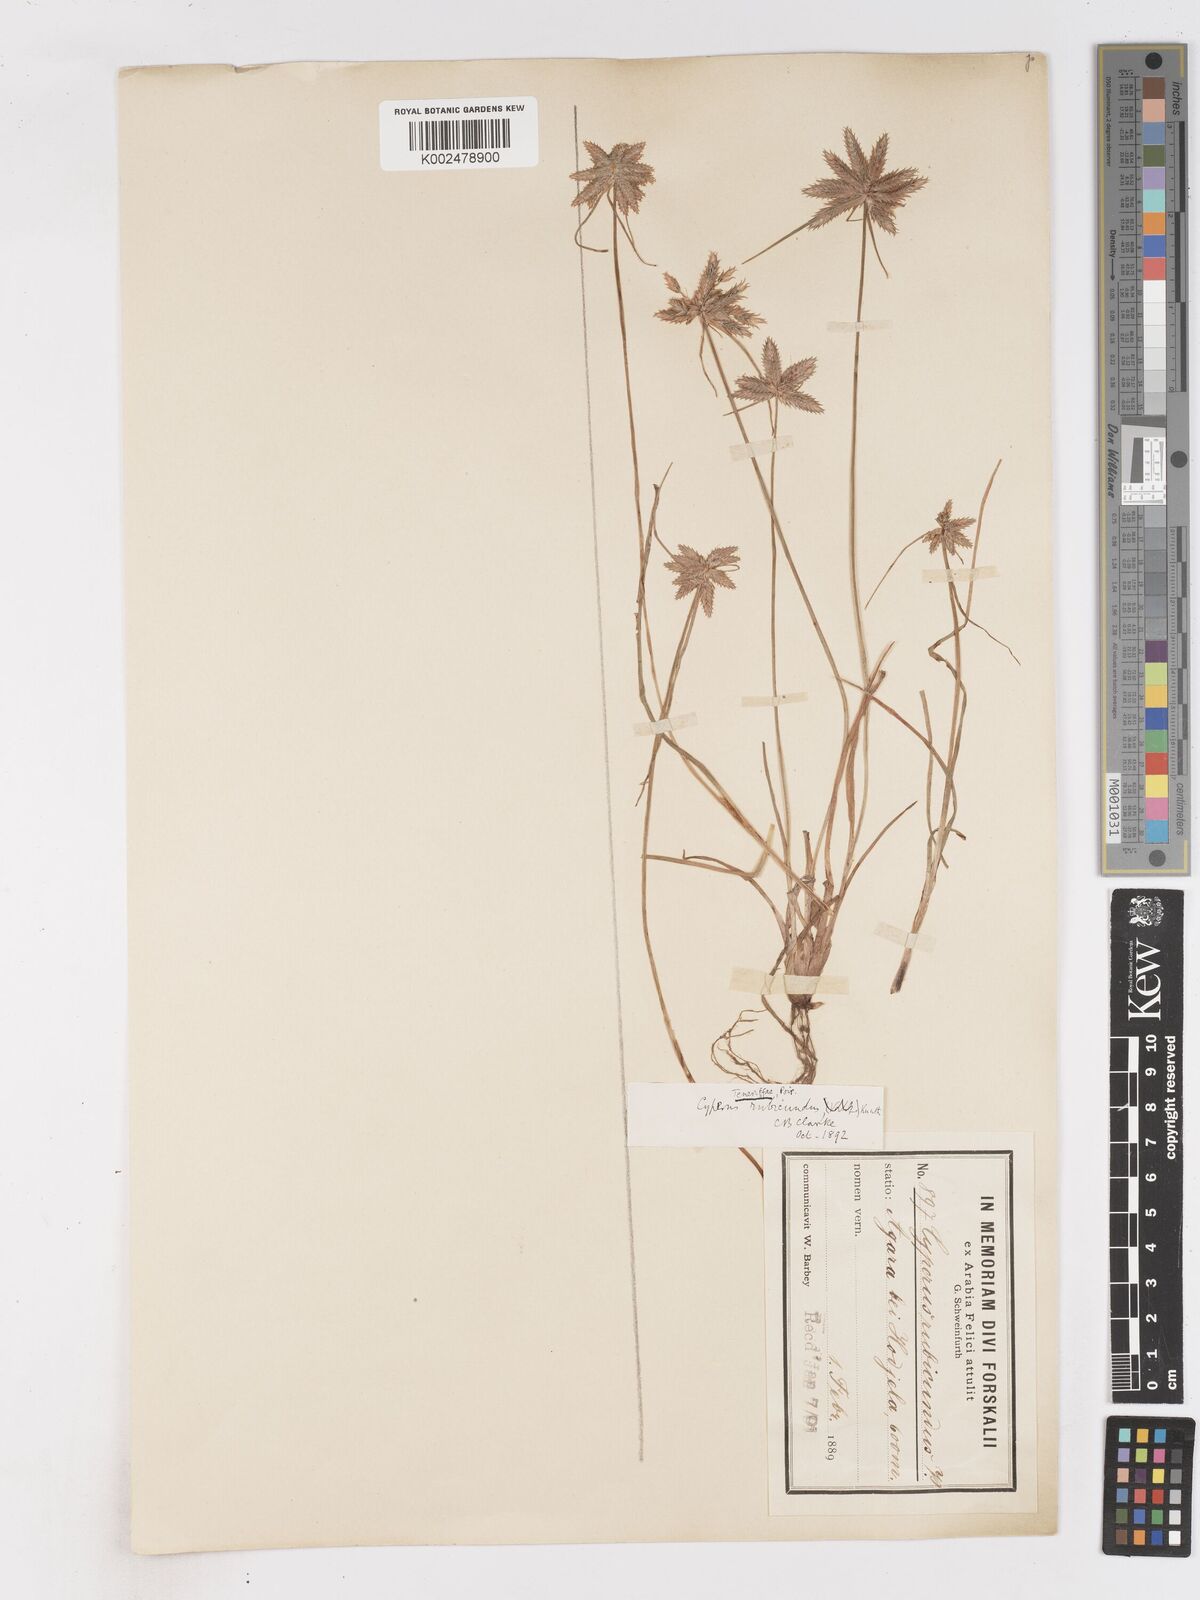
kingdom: Plantae
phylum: Tracheophyta
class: Liliopsida
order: Poales
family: Cyperaceae
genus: Cyperus
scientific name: Cyperus rubicundus
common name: Coco-grass
